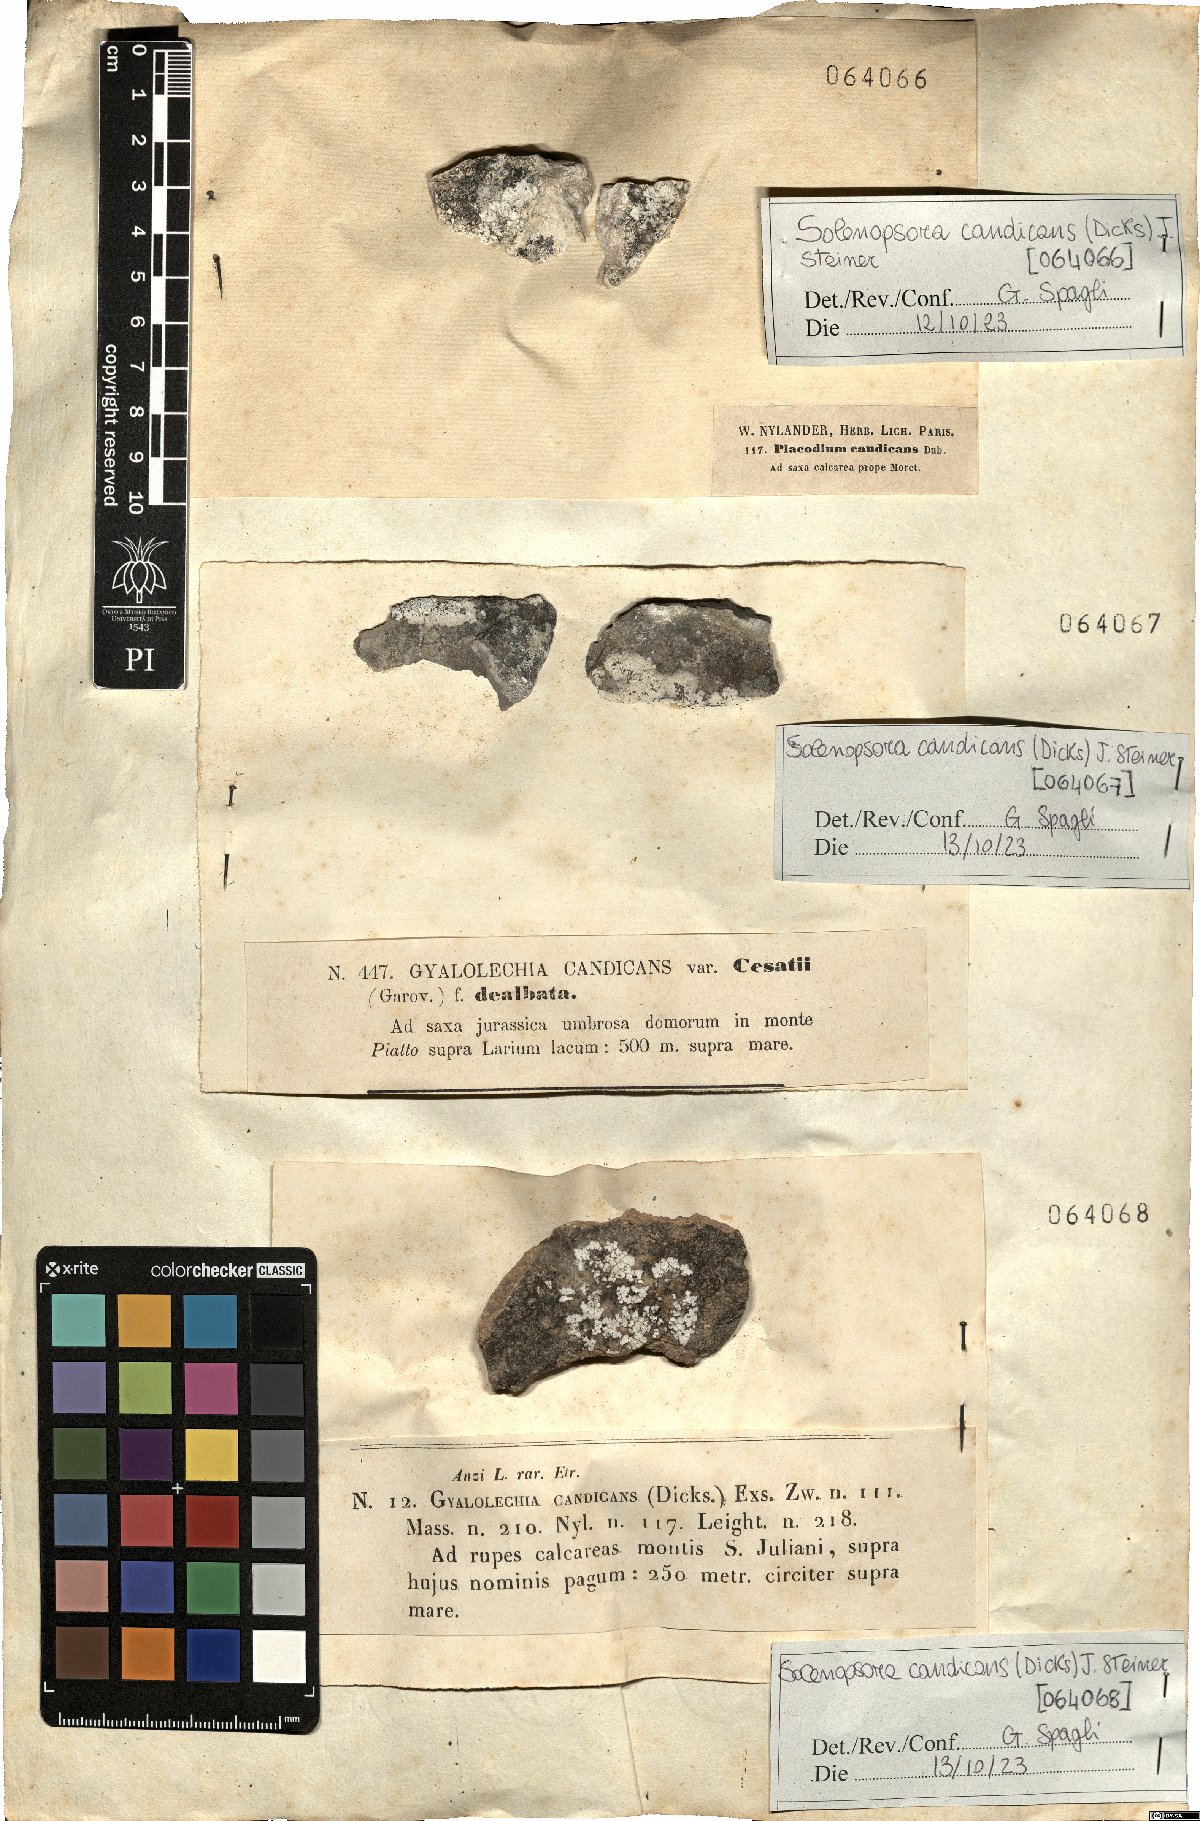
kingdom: Fungi
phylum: Ascomycota
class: Lecanoromycetes
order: Lecanorales
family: Catillariaceae
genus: Solenopsora
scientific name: Solenopsora candicans
